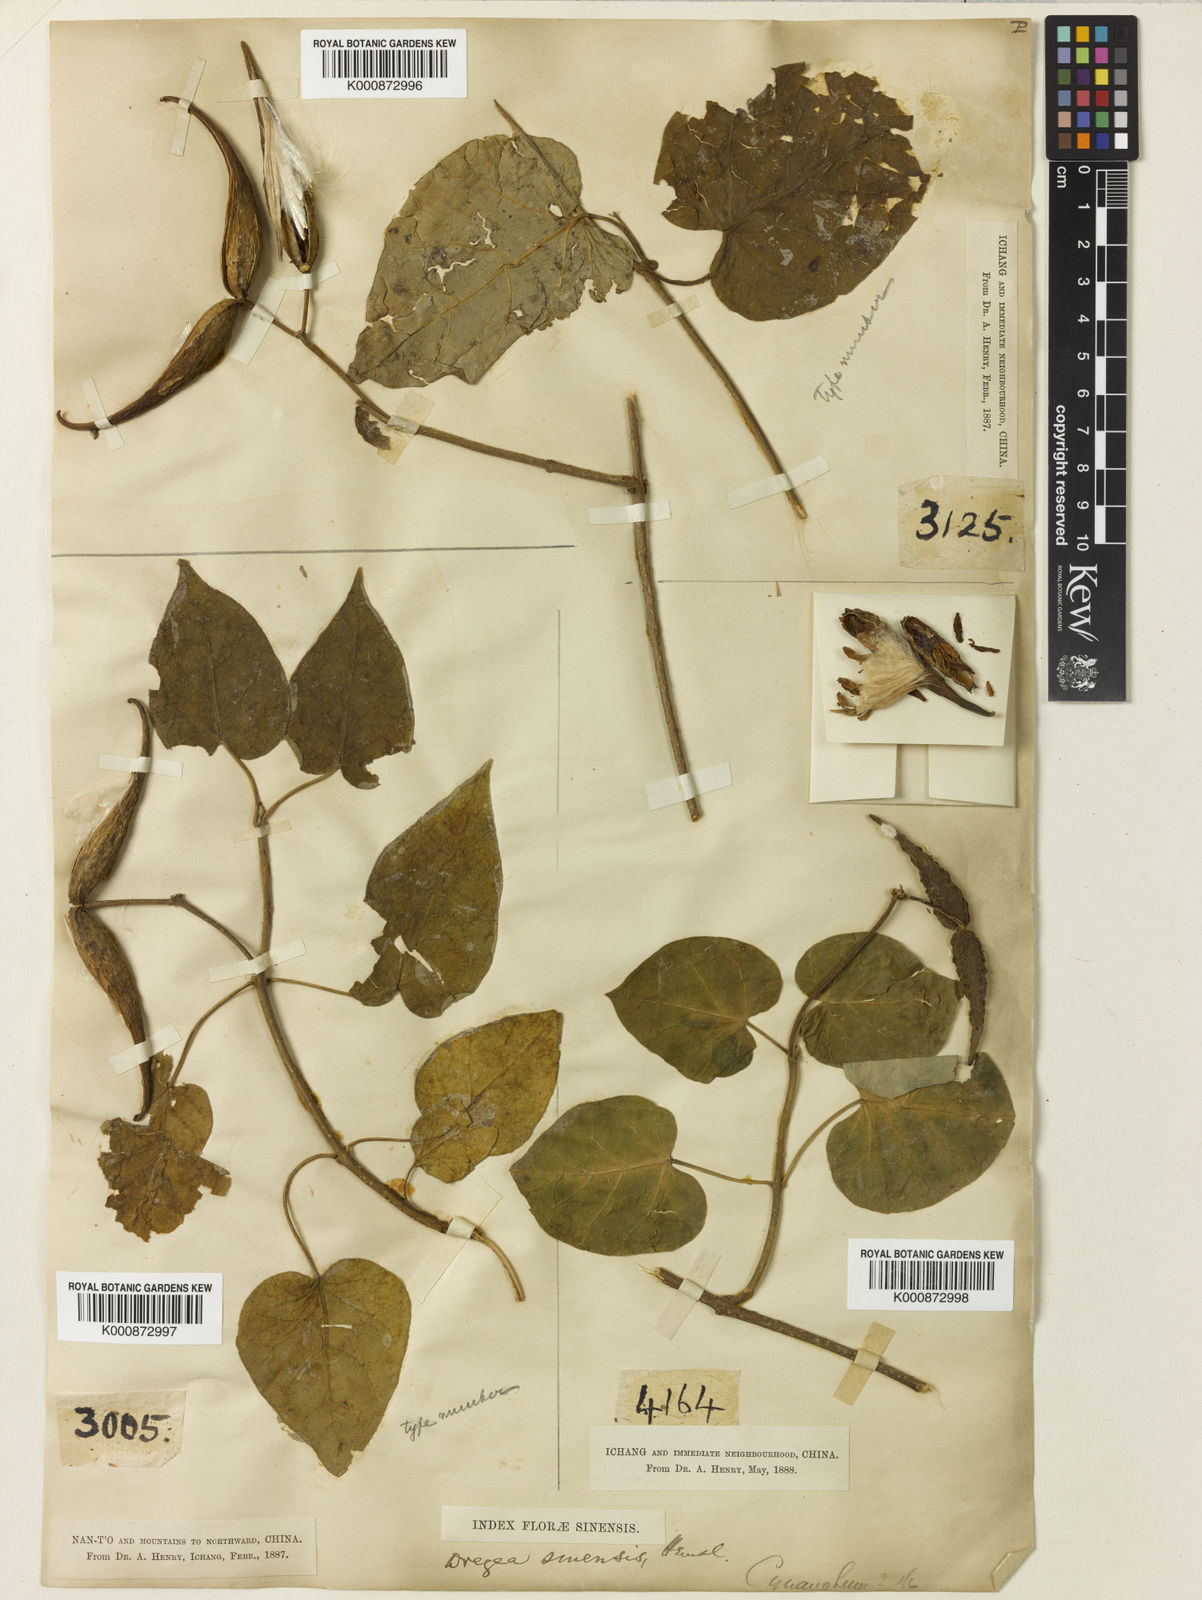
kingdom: Plantae
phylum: Tracheophyta
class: Magnoliopsida
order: Gentianales
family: Apocynaceae
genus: Stephanotis
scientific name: Stephanotis sinensis
